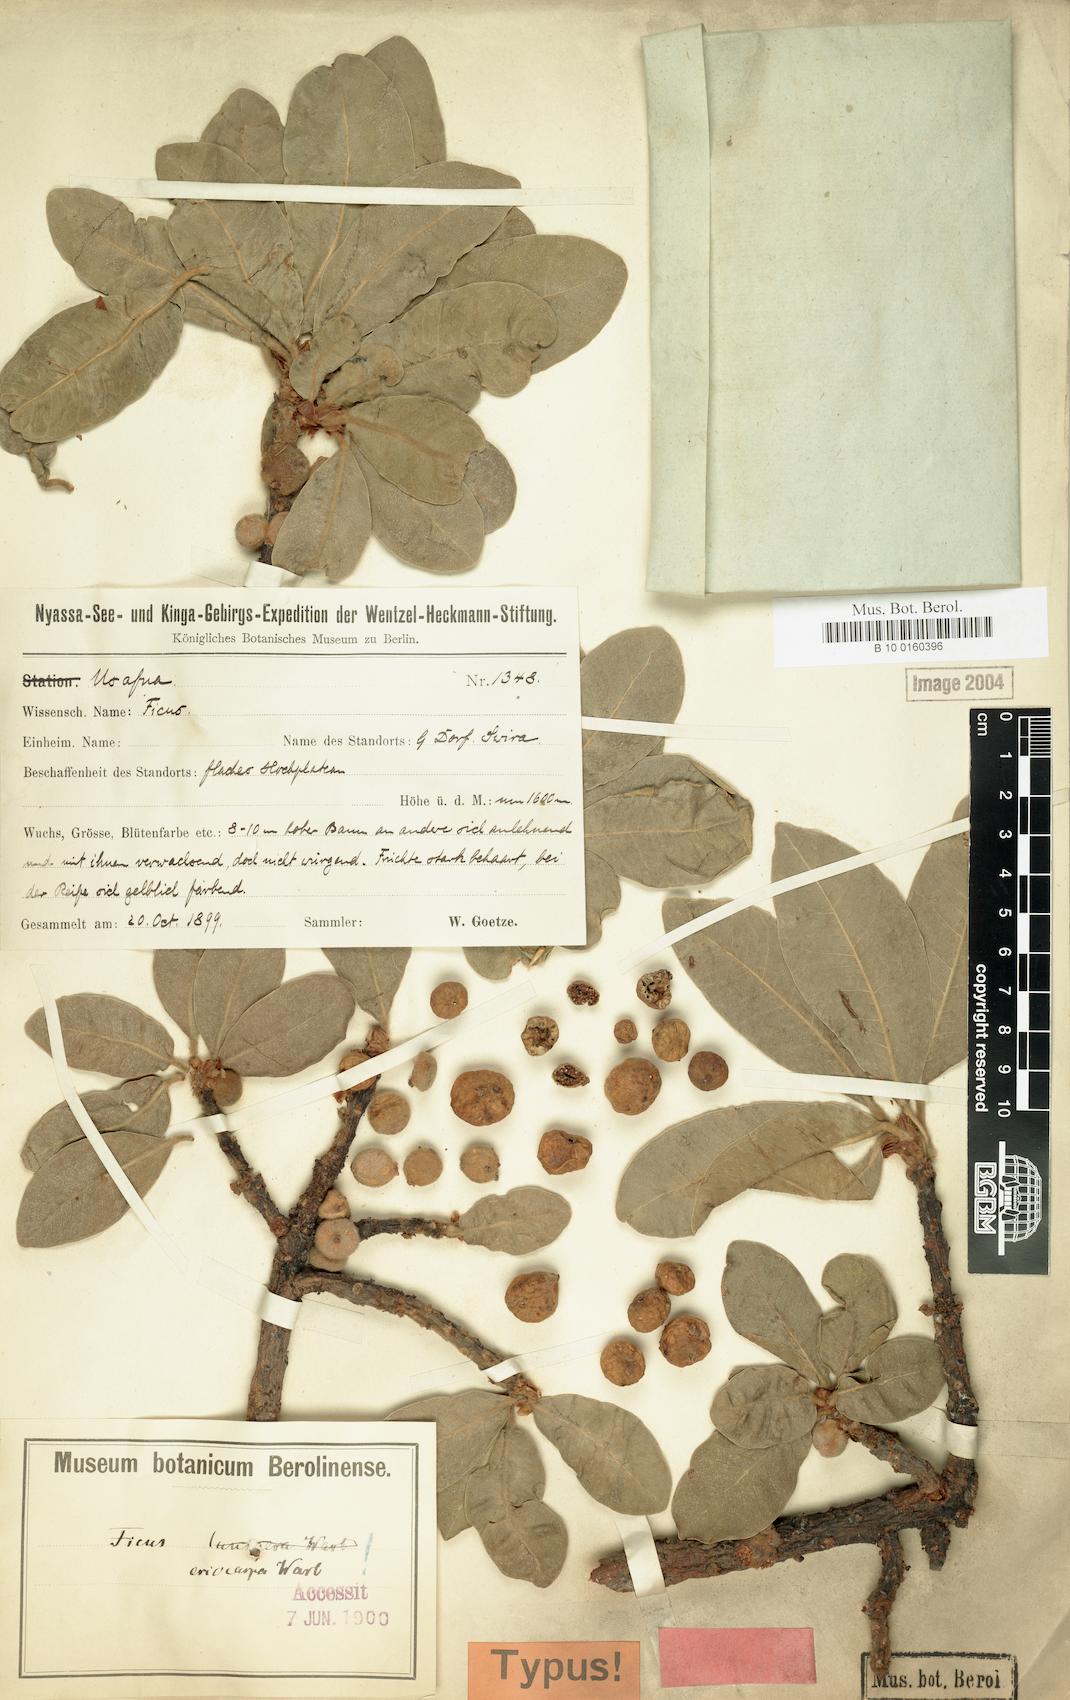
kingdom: Plantae
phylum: Tracheophyta
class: Magnoliopsida
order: Rosales
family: Moraceae
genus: Ficus
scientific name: Ficus thonningii
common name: Fig
